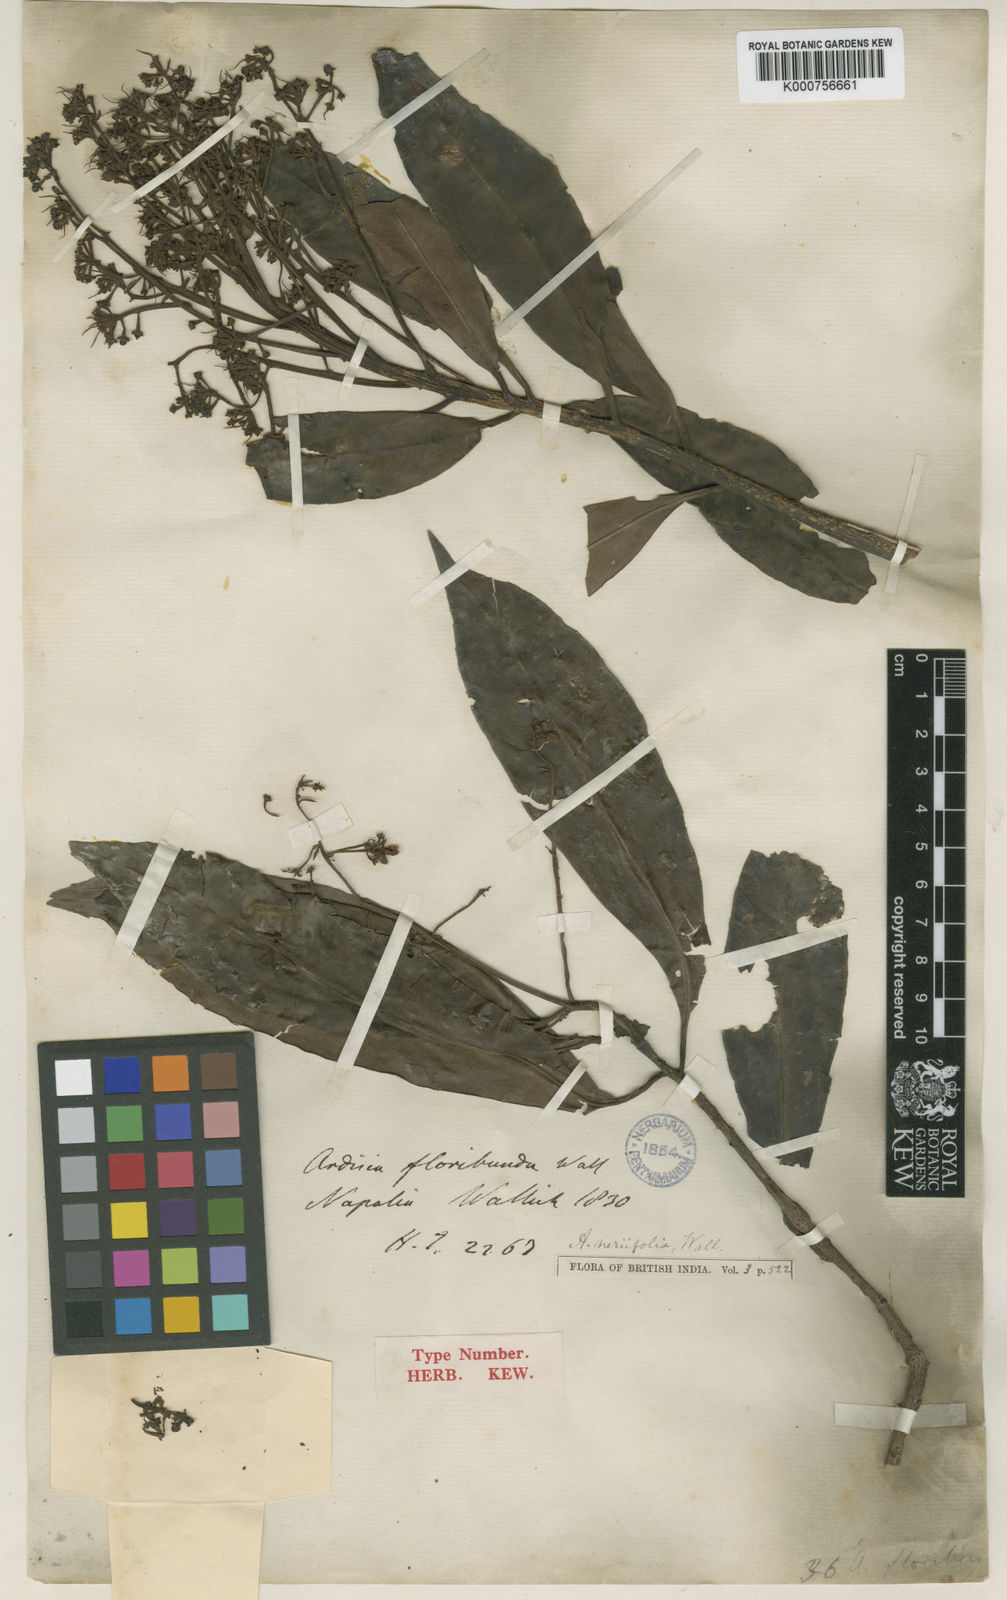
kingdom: Plantae
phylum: Tracheophyta
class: Magnoliopsida
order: Ericales
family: Primulaceae
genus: Ardisia
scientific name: Ardisia floribunda
